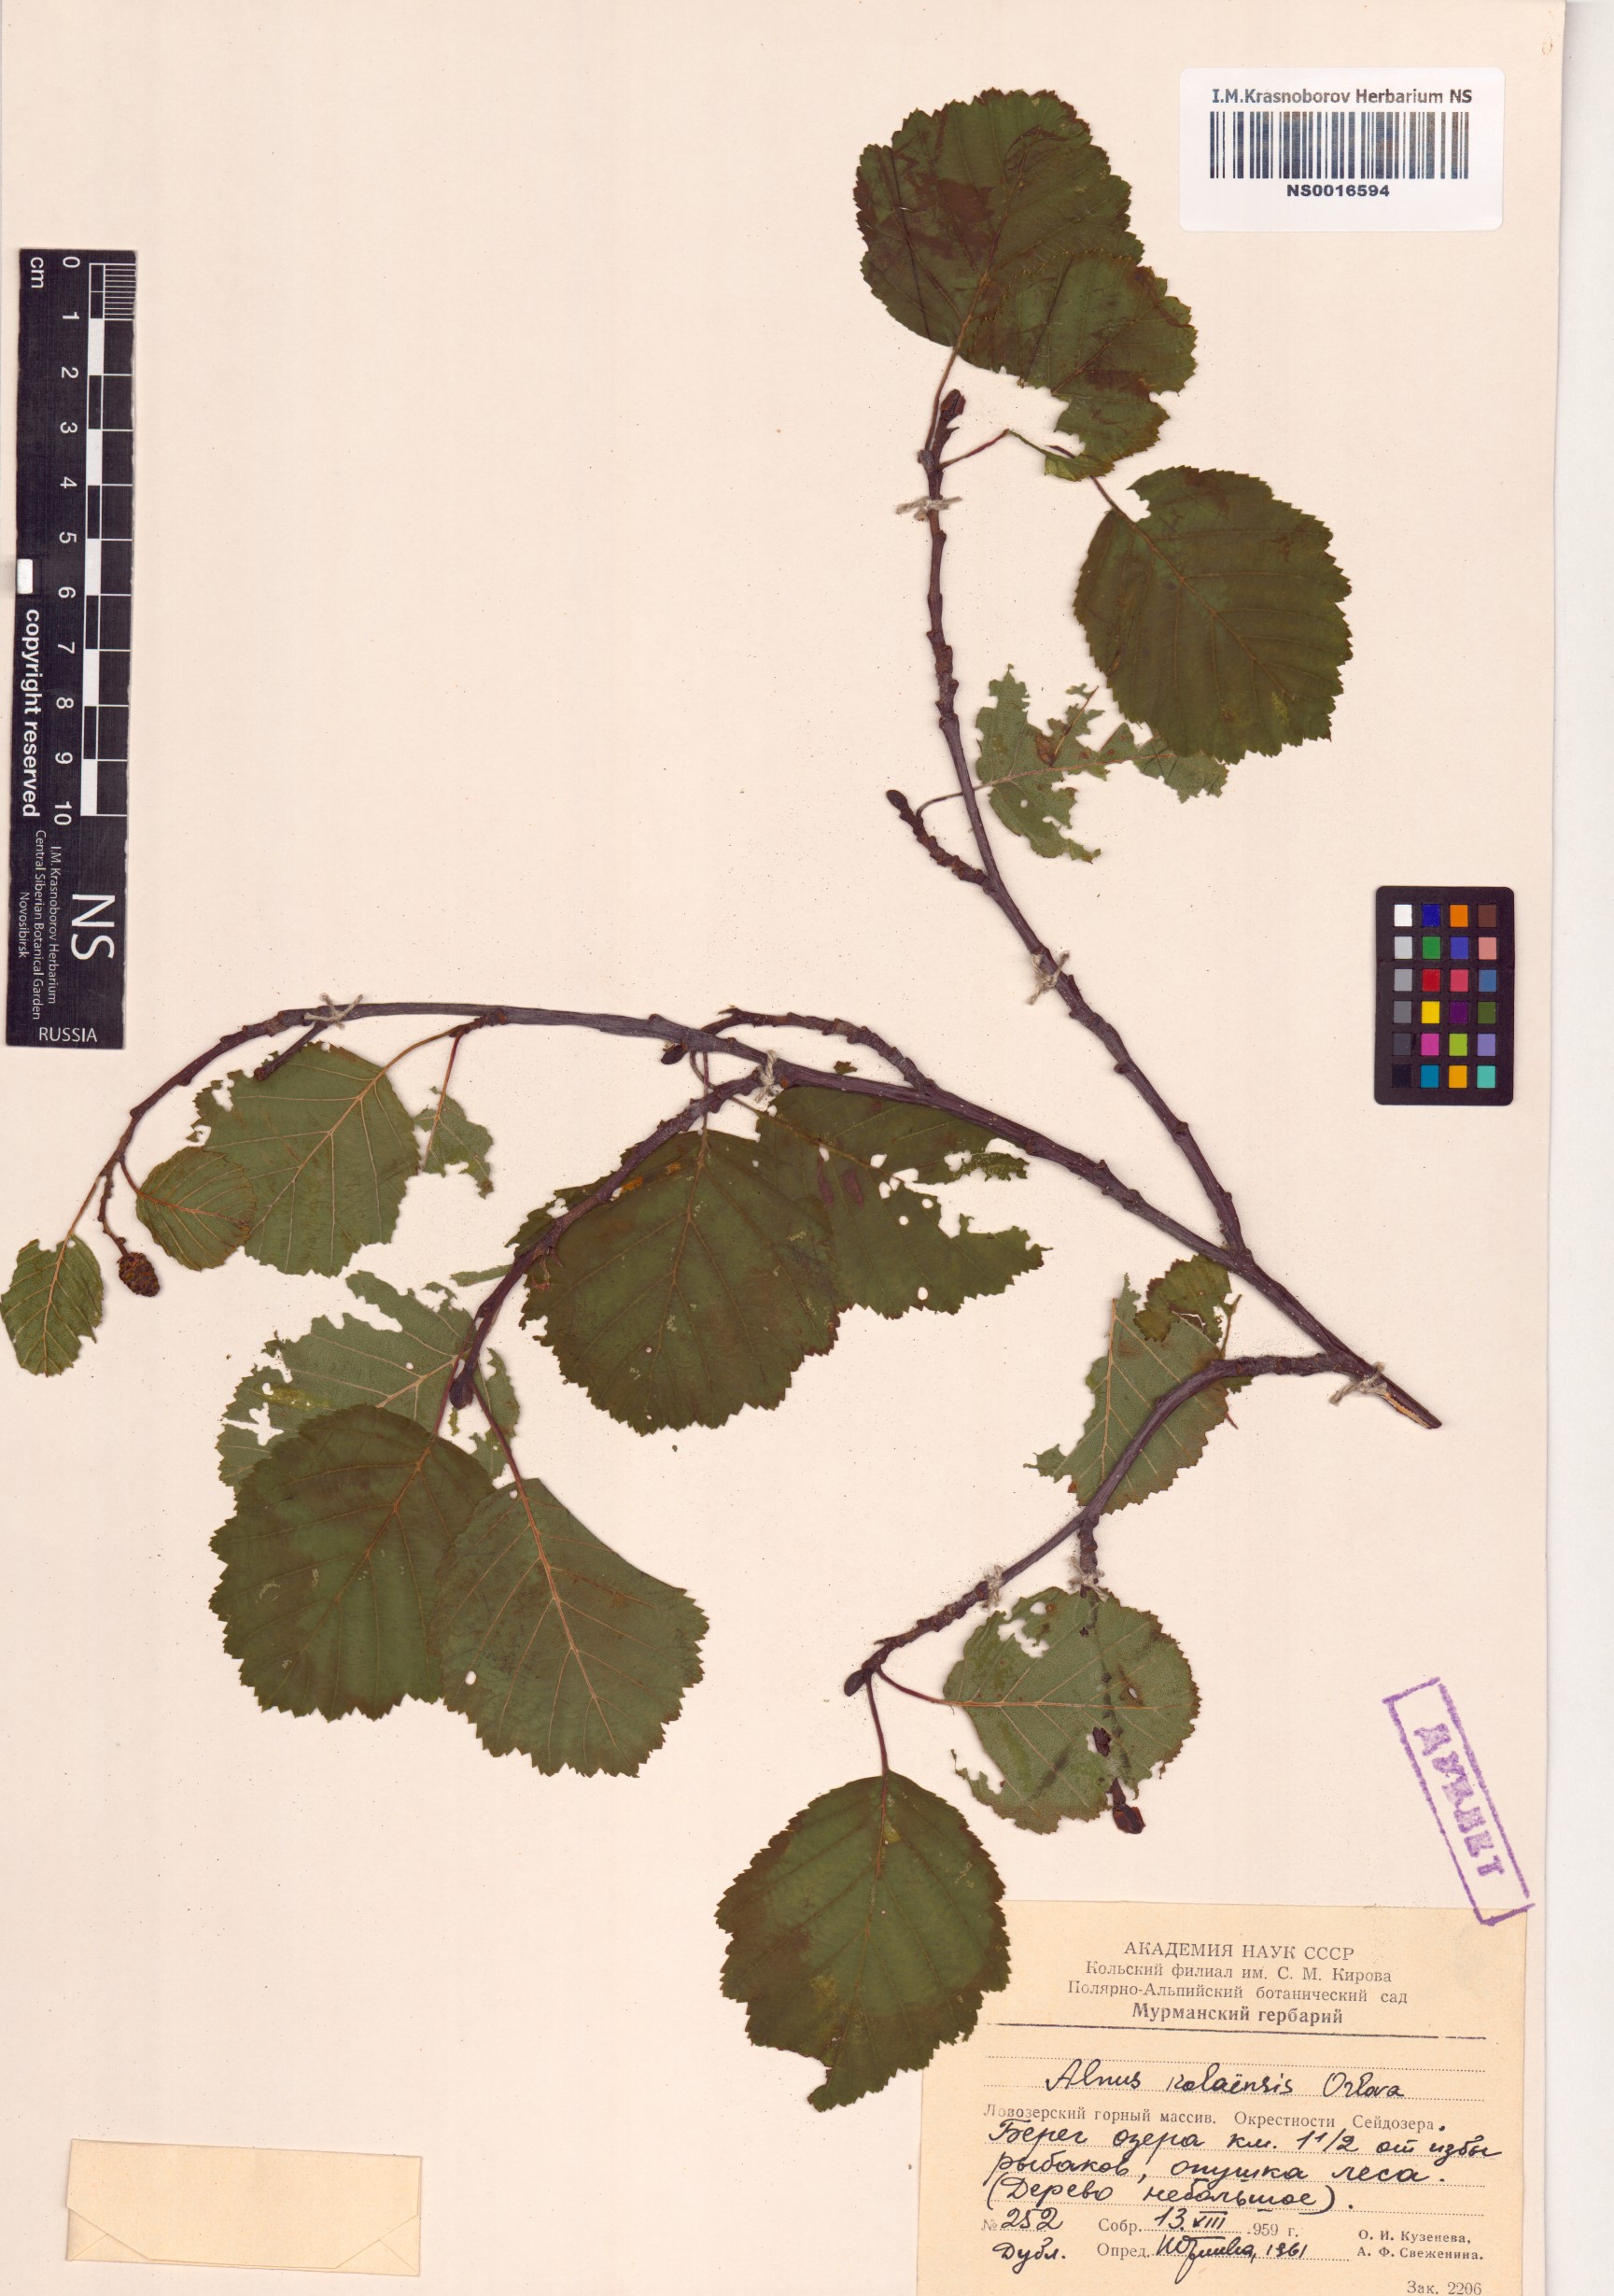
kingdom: Plantae
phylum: Tracheophyta
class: Magnoliopsida
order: Fagales
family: Betulaceae
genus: Alnus
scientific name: Alnus incana
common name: Grey alder
